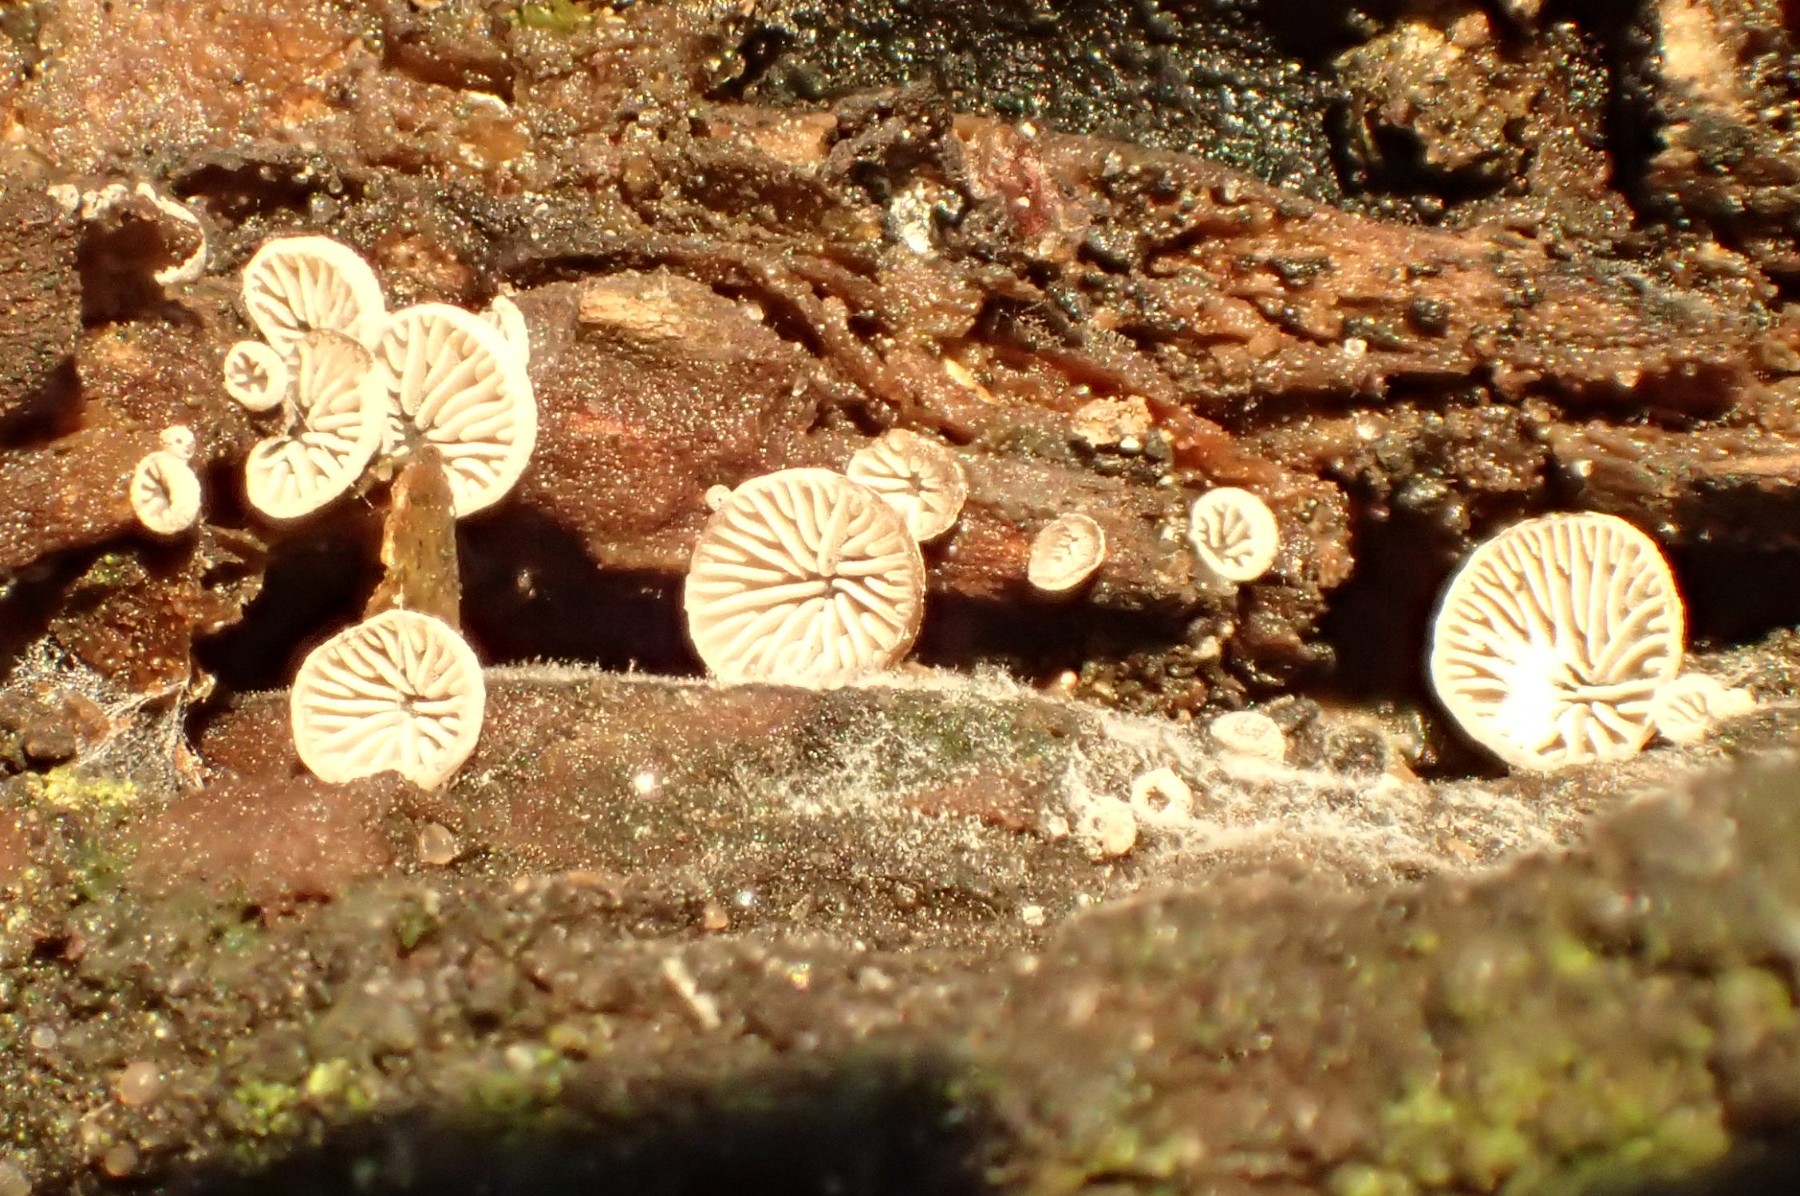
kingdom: Fungi
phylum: Basidiomycota
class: Agaricomycetes
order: Agaricales
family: Pleurotaceae
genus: Resupinatus
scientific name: Resupinatus applicatus
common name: lysfiltet barkhat
